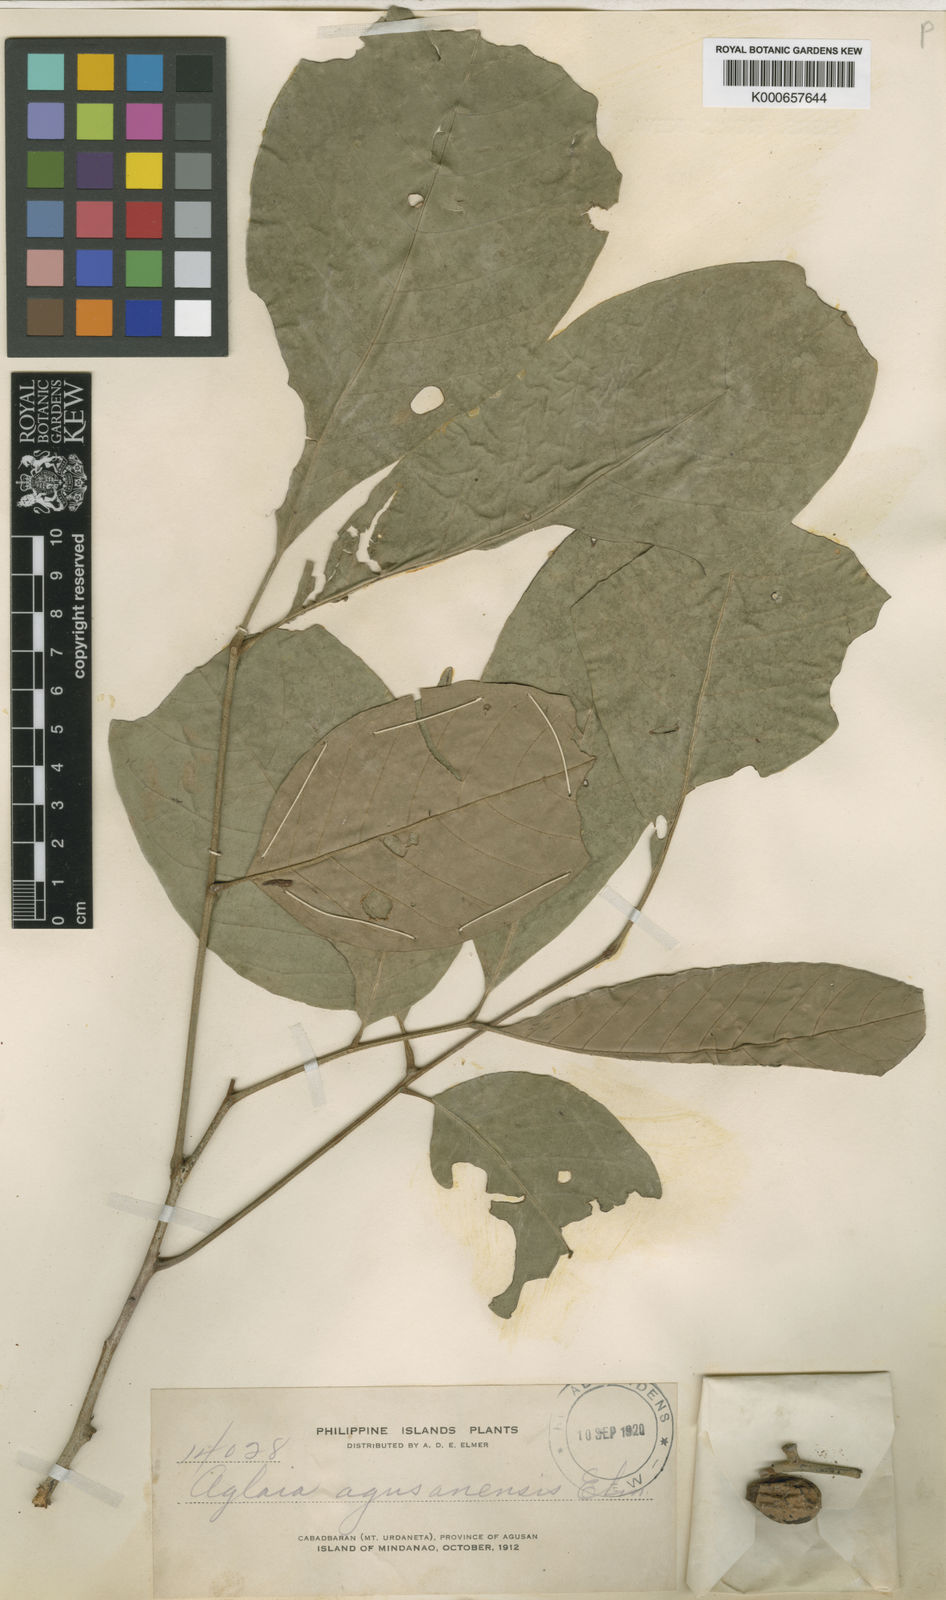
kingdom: Plantae
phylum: Tracheophyta
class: Magnoliopsida
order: Sapindales
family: Meliaceae
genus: Aglaia
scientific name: Aglaia leucophylla
